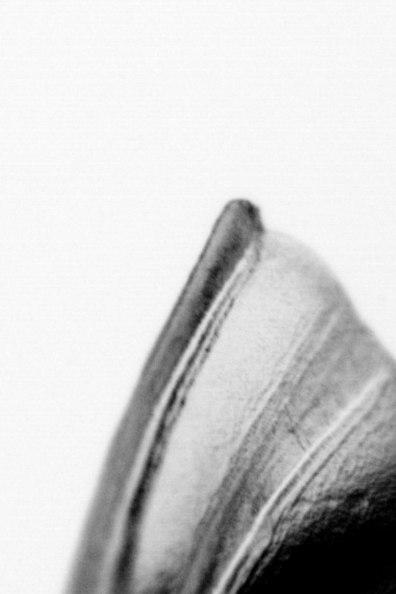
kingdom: Animalia
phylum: Chordata
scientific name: Chordata
